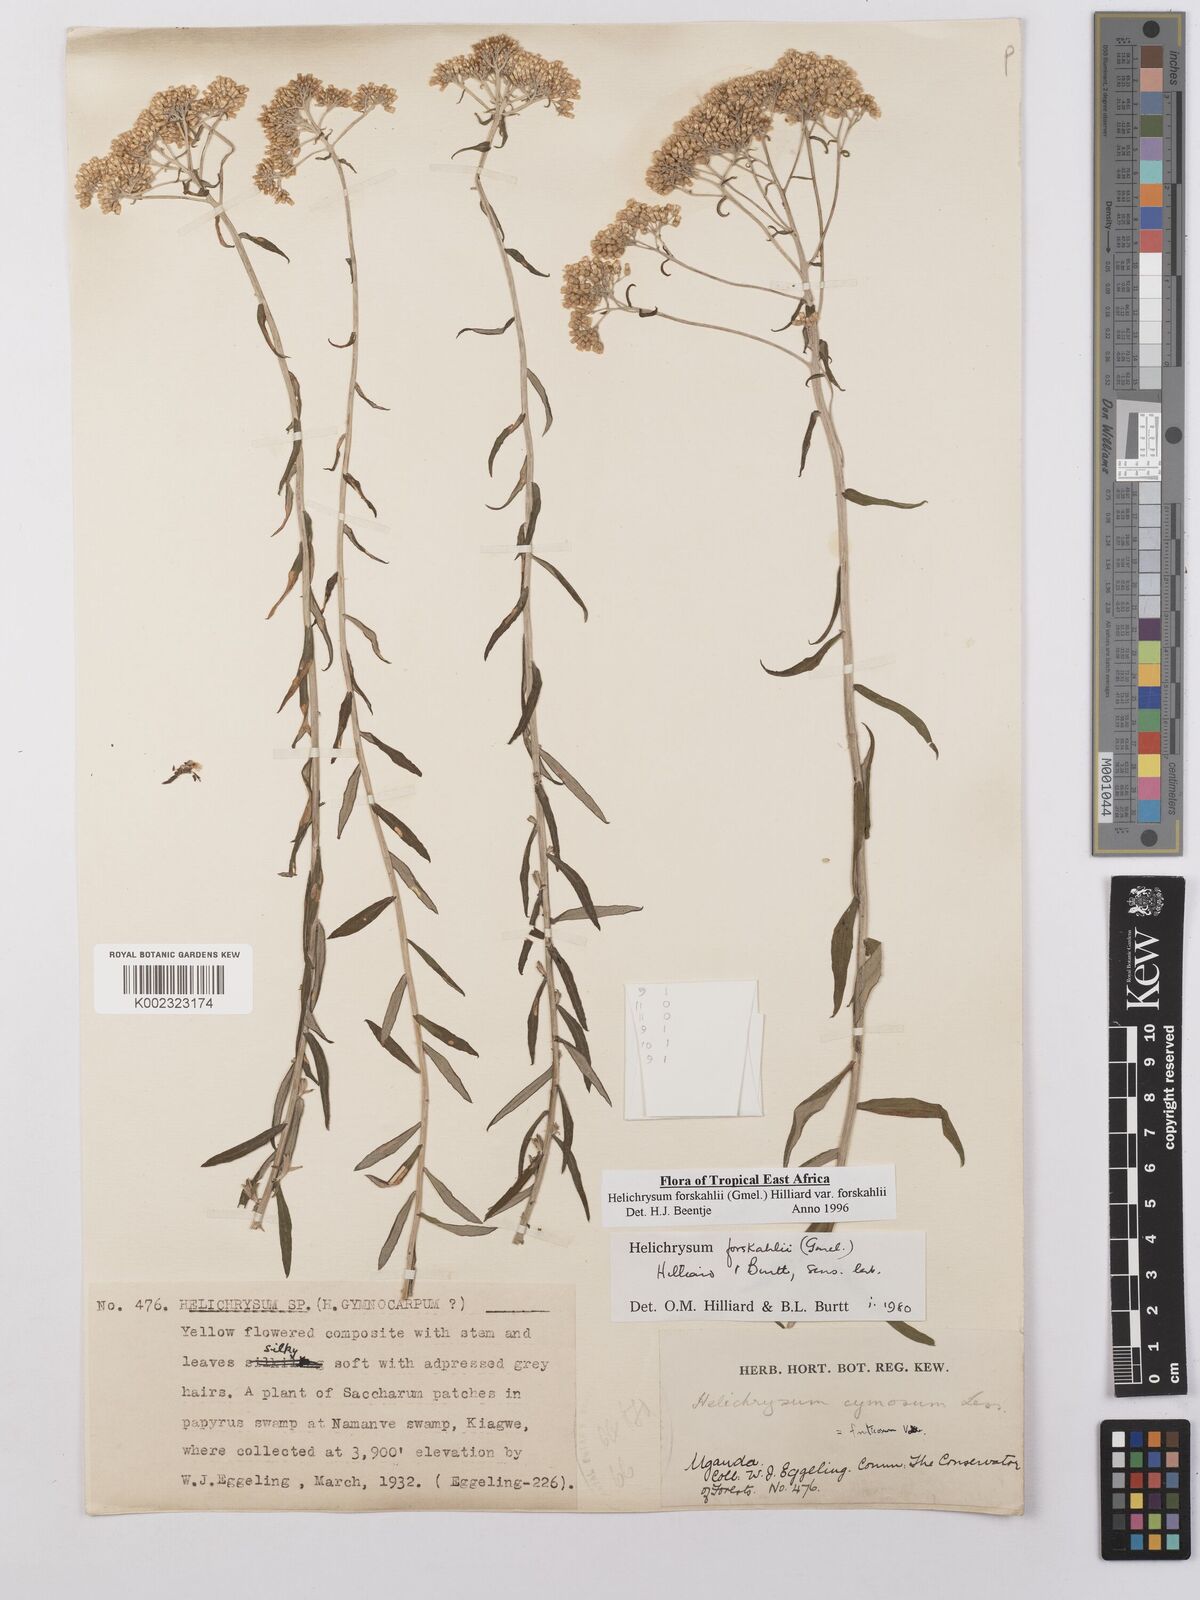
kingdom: Plantae
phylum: Tracheophyta
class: Magnoliopsida
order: Asterales
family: Asteraceae
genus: Helichrysum
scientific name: Helichrysum forskahlii
